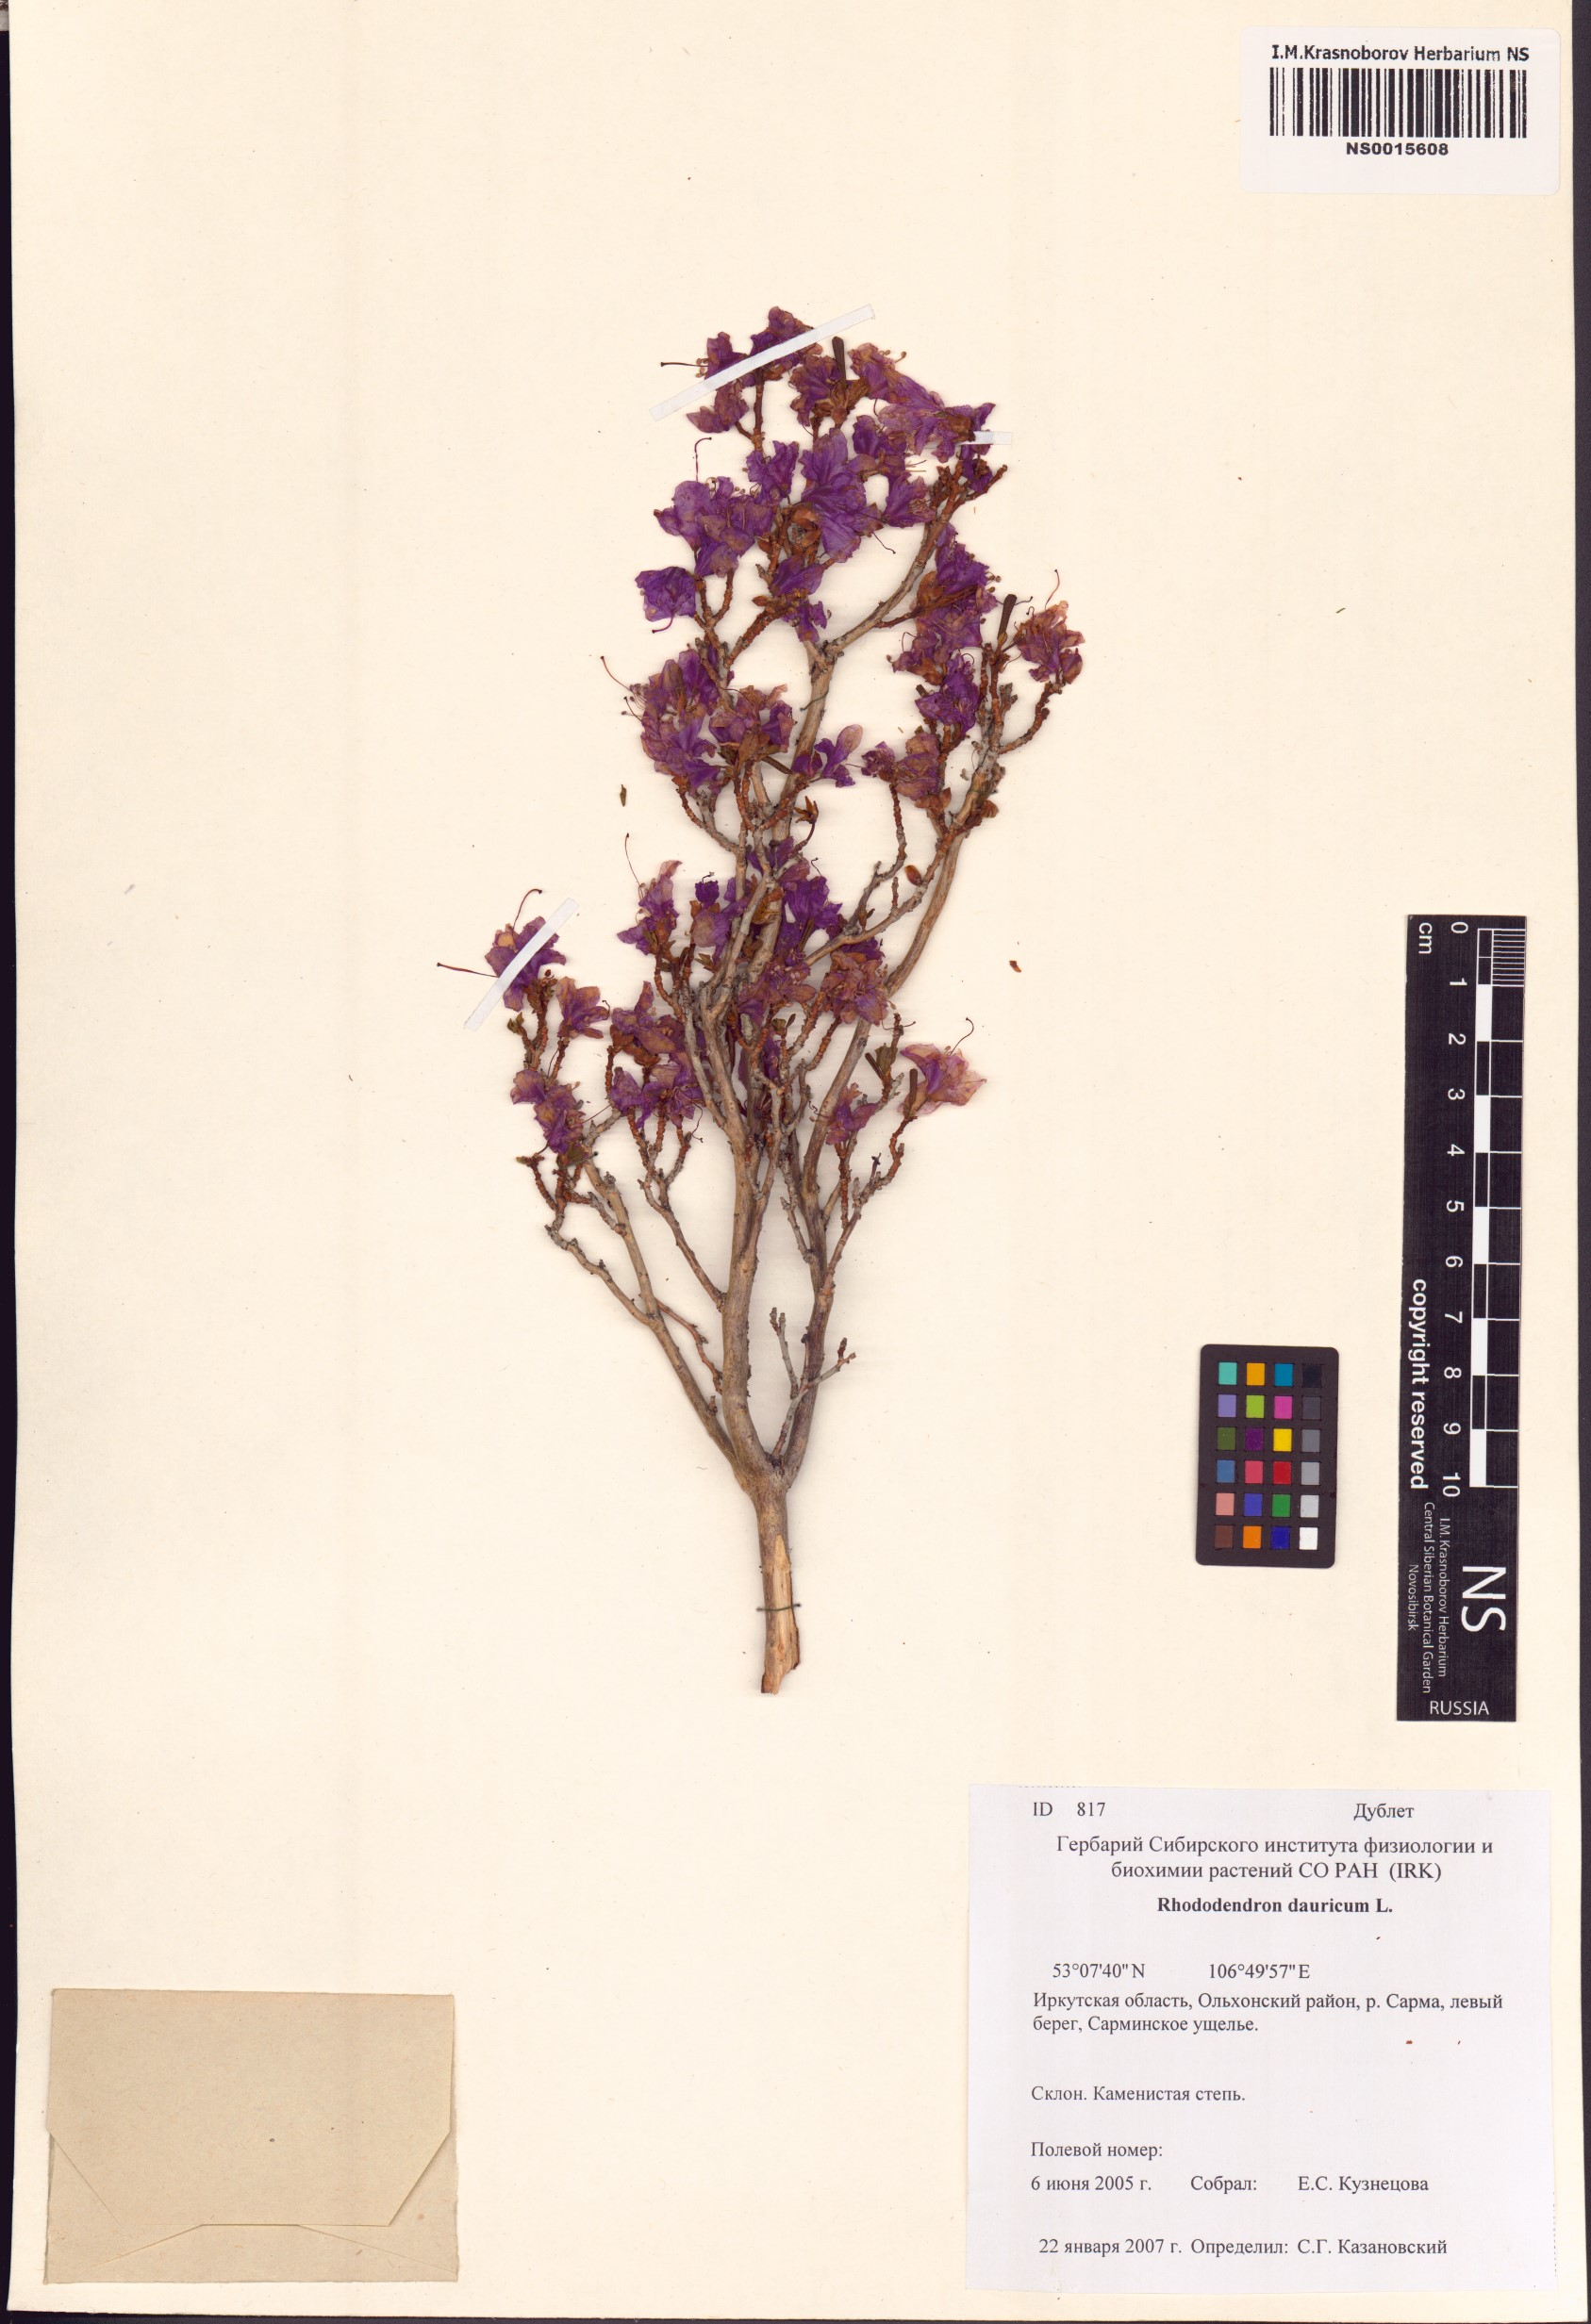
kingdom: Plantae
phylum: Tracheophyta
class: Magnoliopsida
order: Ericales
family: Ericaceae
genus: Rhododendron
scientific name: Rhododendron dauricum
